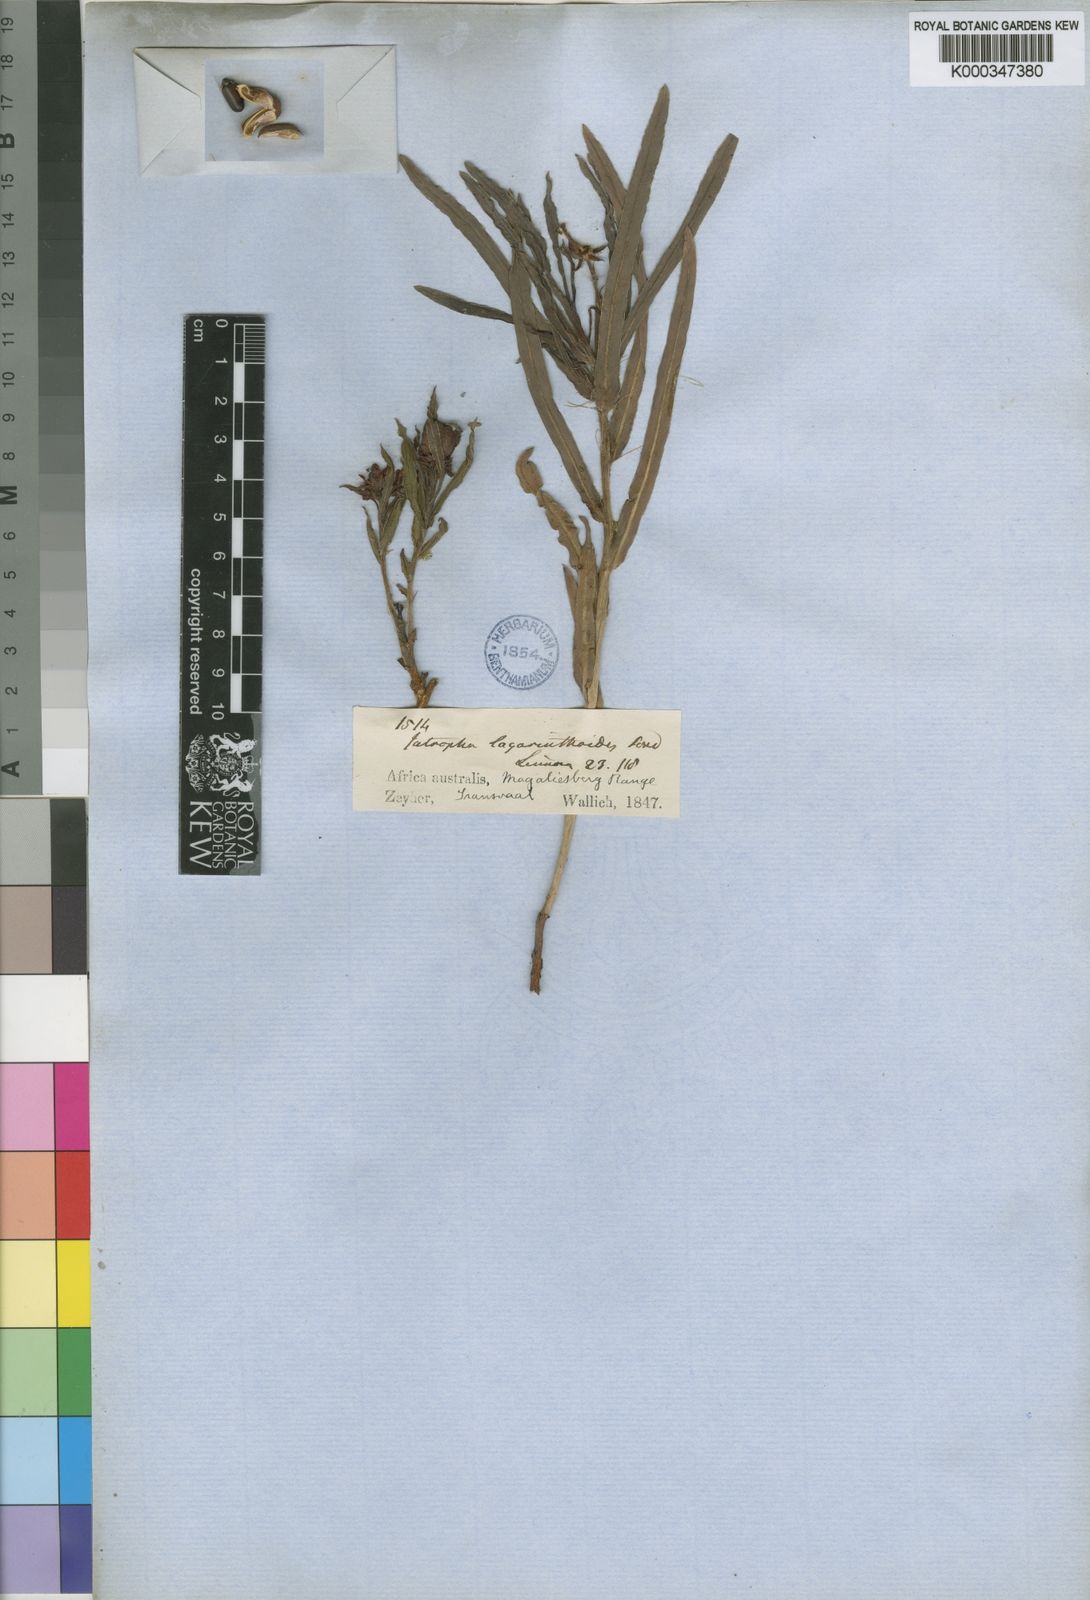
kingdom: Plantae
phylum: Tracheophyta
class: Magnoliopsida
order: Malpighiales
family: Euphorbiaceae
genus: Jatropha
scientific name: Jatropha lagarinthoides
